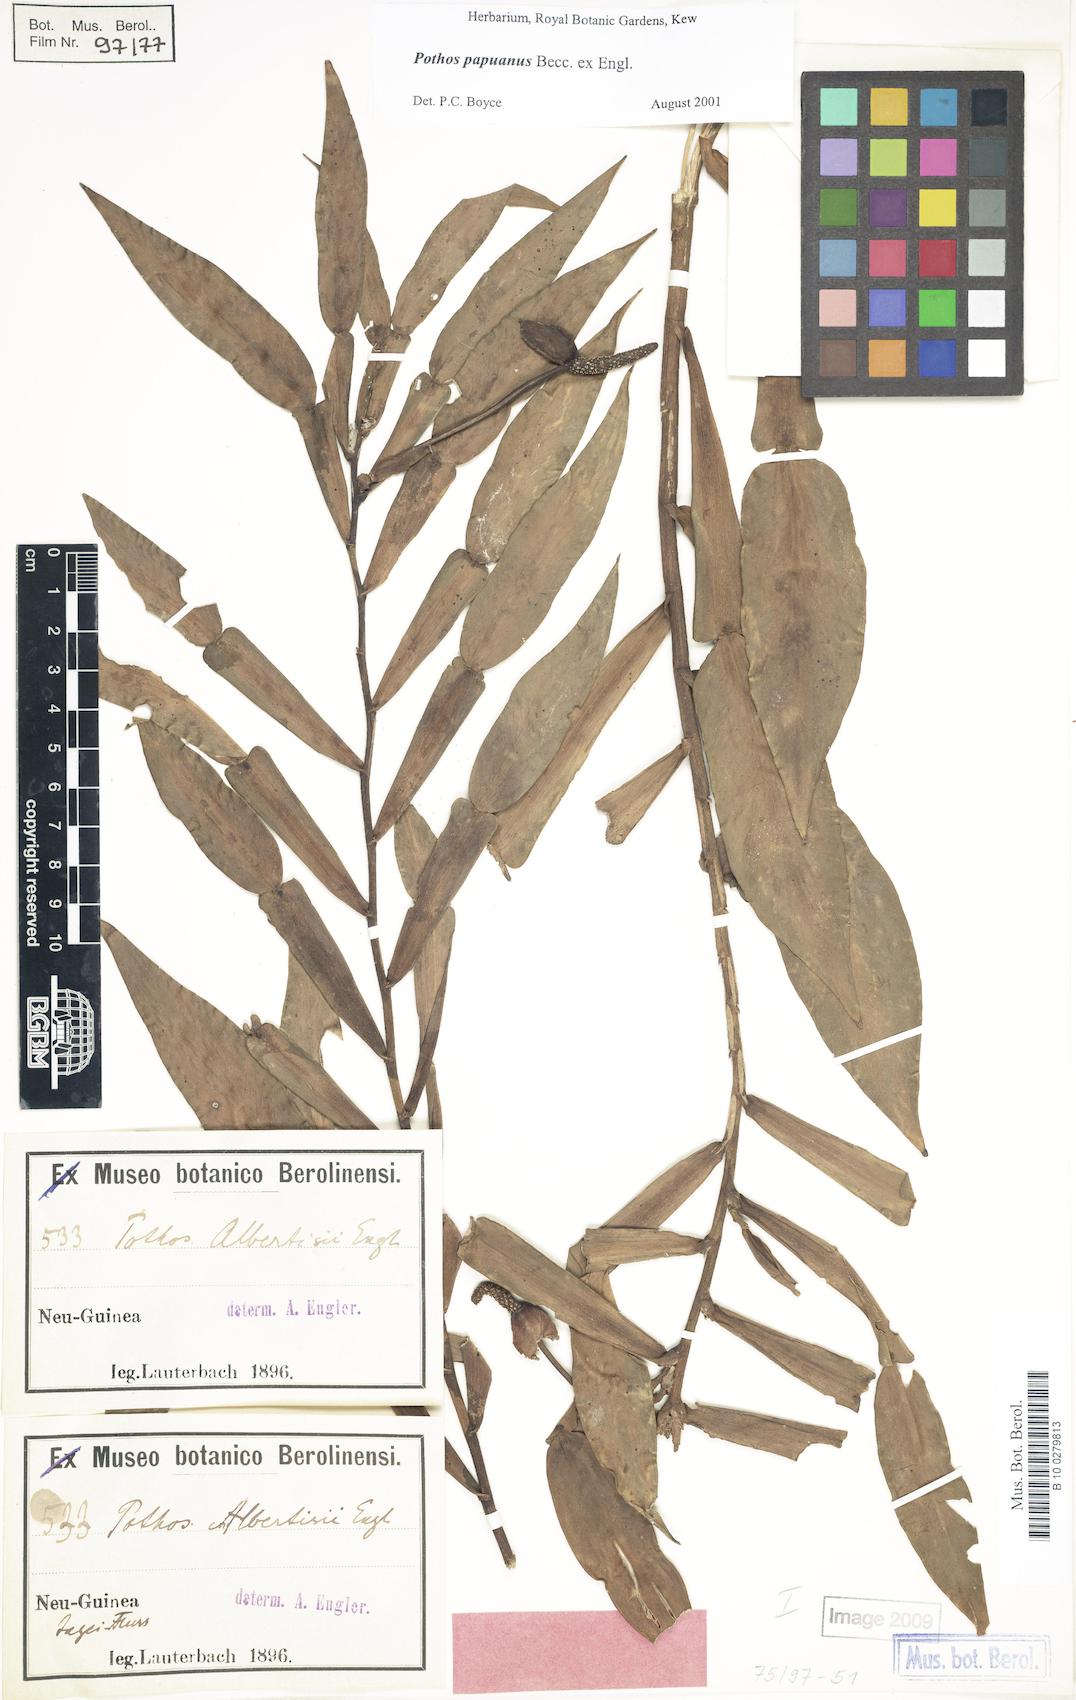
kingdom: Plantae
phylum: Tracheophyta
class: Liliopsida
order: Alismatales
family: Araceae
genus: Pothos
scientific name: Pothos papuanus
